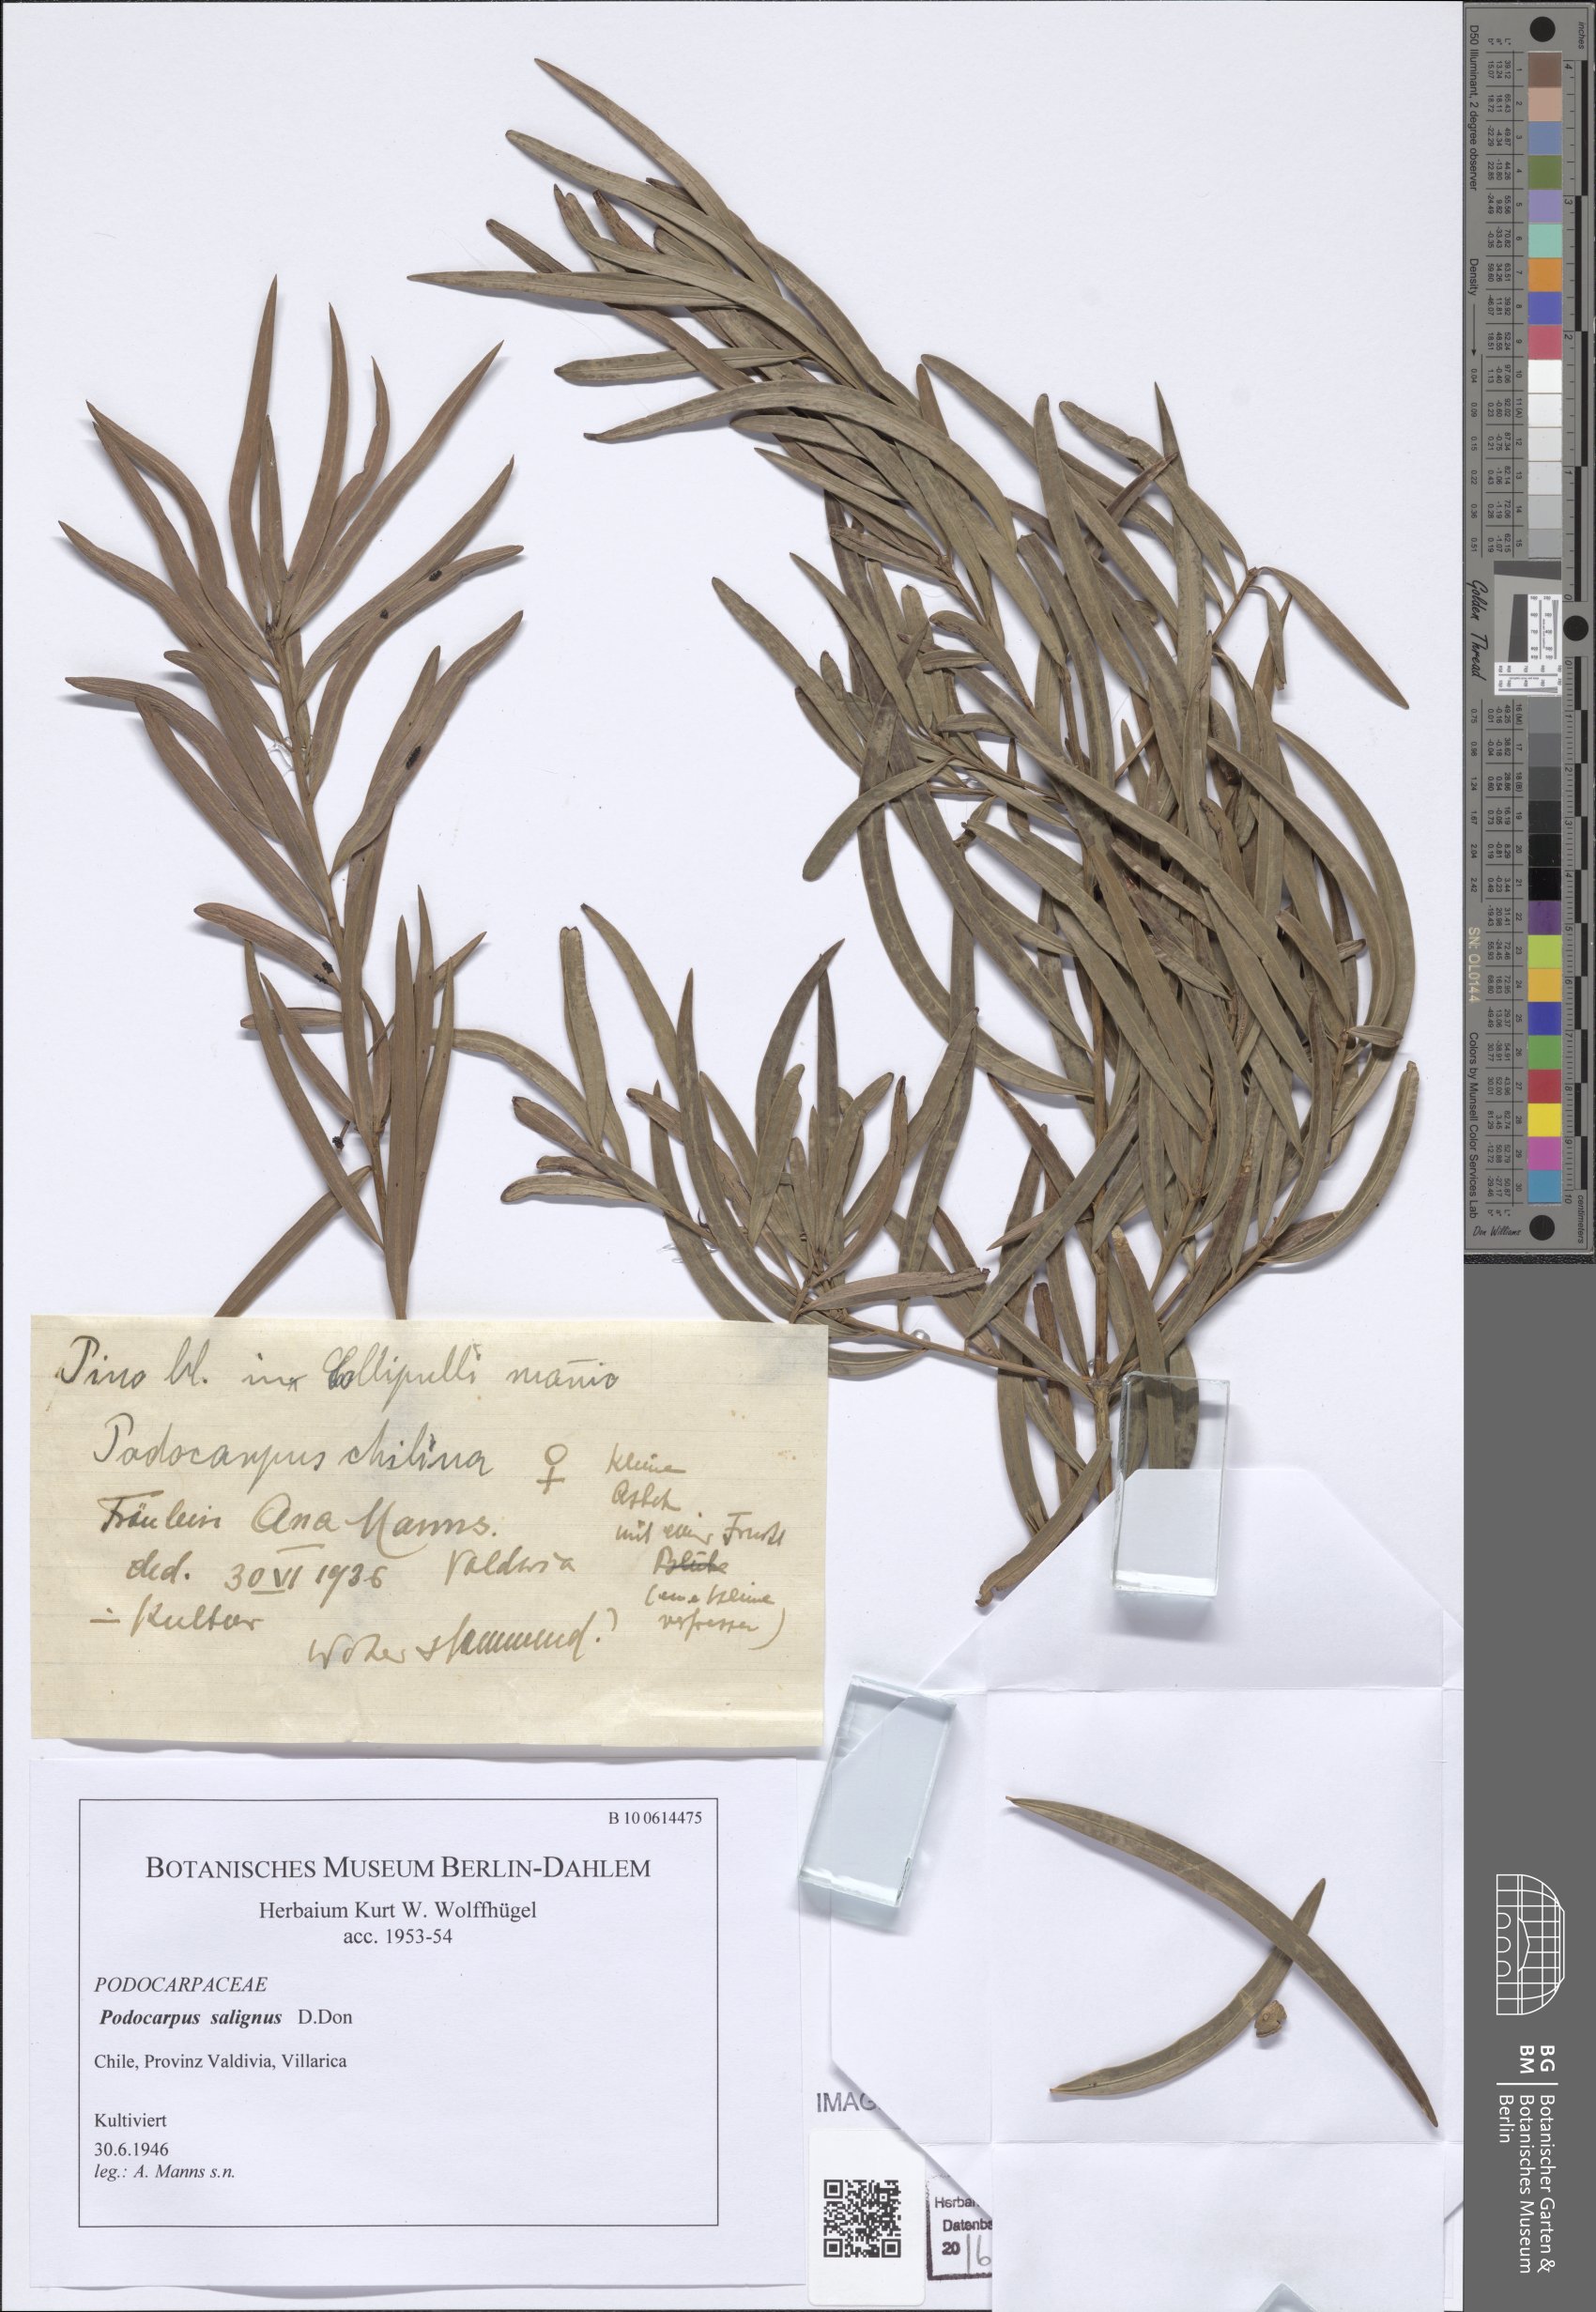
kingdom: Plantae
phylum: Tracheophyta
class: Pinopsida
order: Pinales
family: Podocarpaceae
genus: Podocarpus
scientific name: Podocarpus salignus
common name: Willow-leaf podocarp
